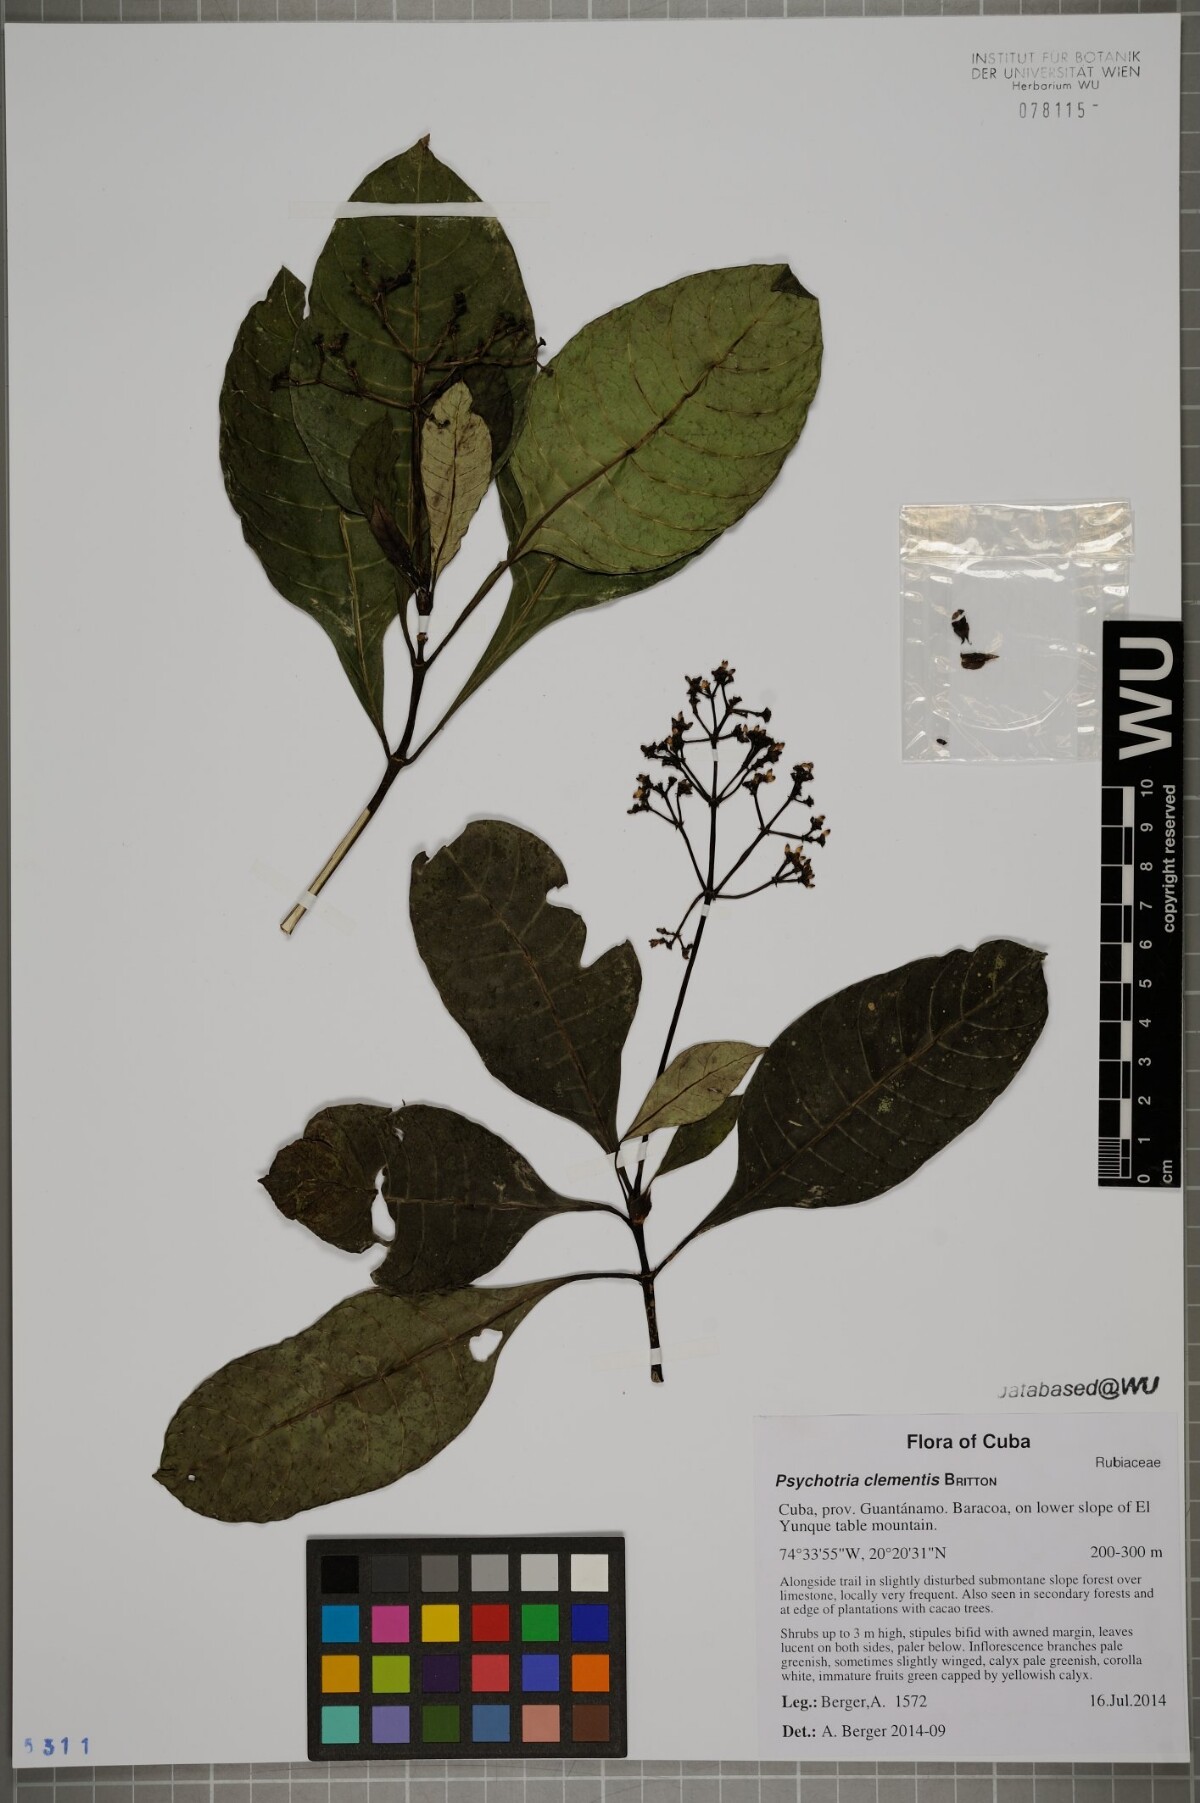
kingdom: Plantae
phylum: Tracheophyta
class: Magnoliopsida
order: Gentianales
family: Rubiaceae
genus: Psychotria
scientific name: Psychotria costivenia
